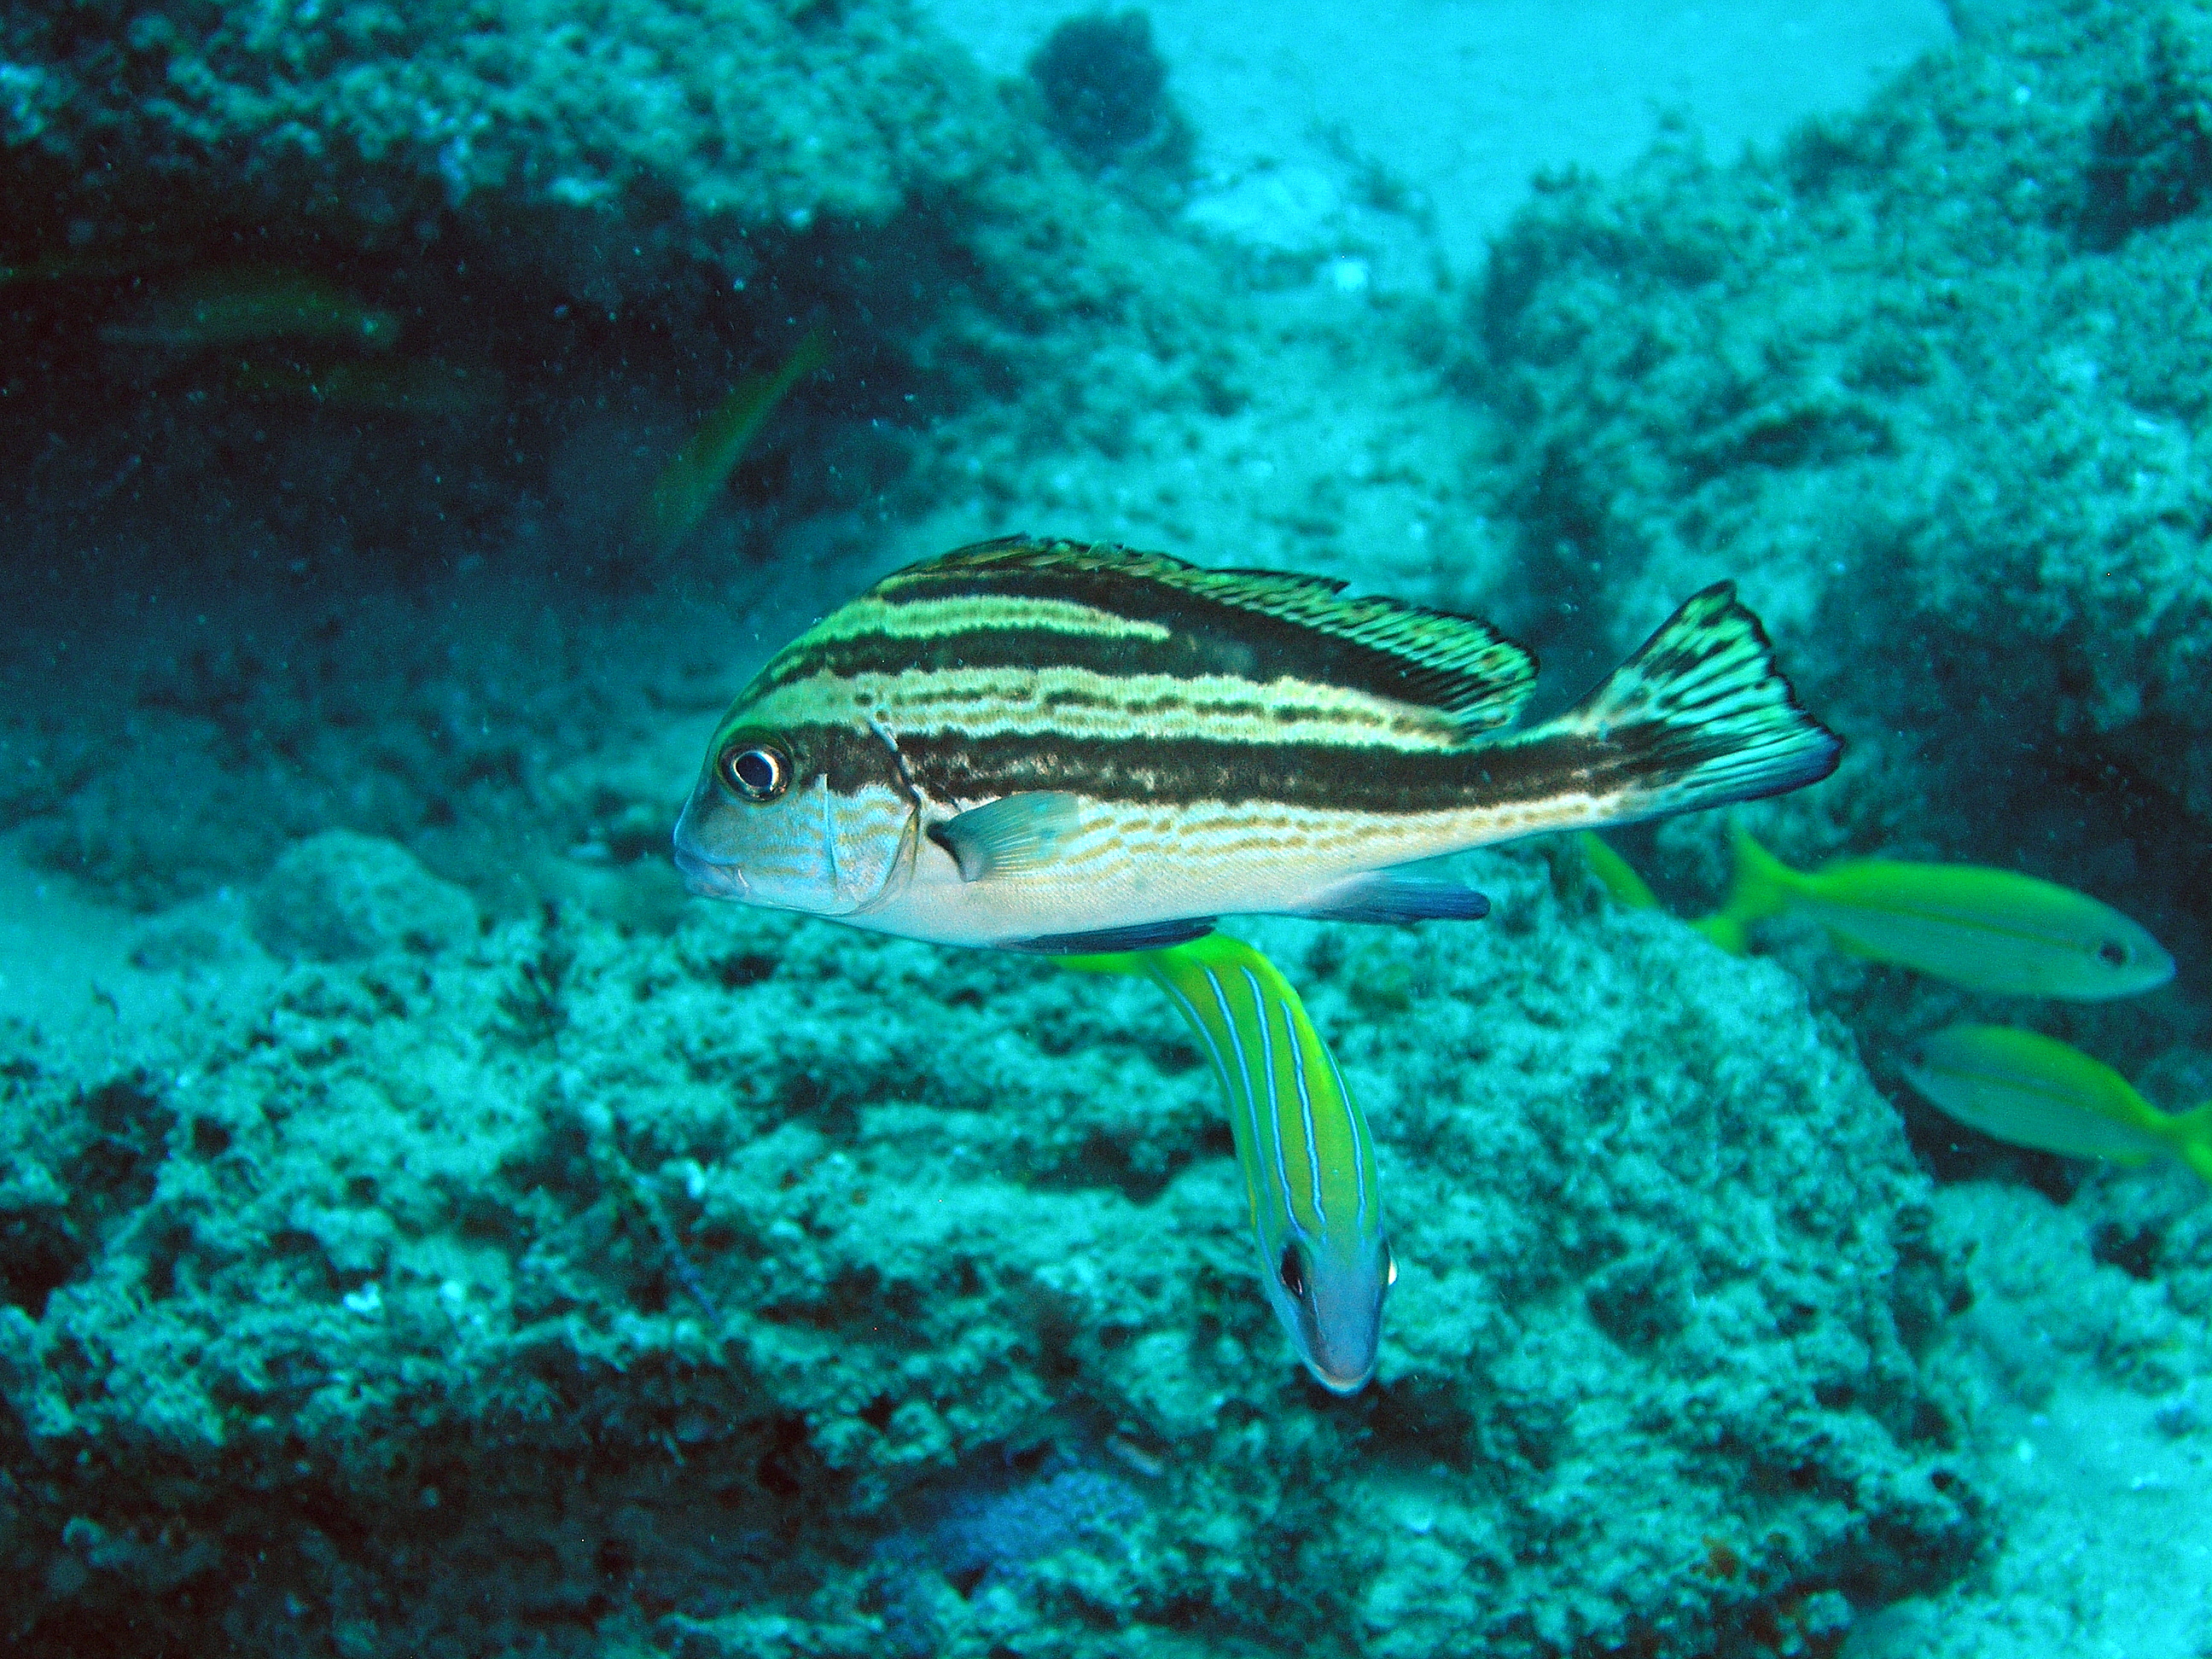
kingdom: Animalia
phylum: Chordata
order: Perciformes
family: Haemulidae
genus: Diagramma
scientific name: Diagramma centurio
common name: Sailfin rubberlip
